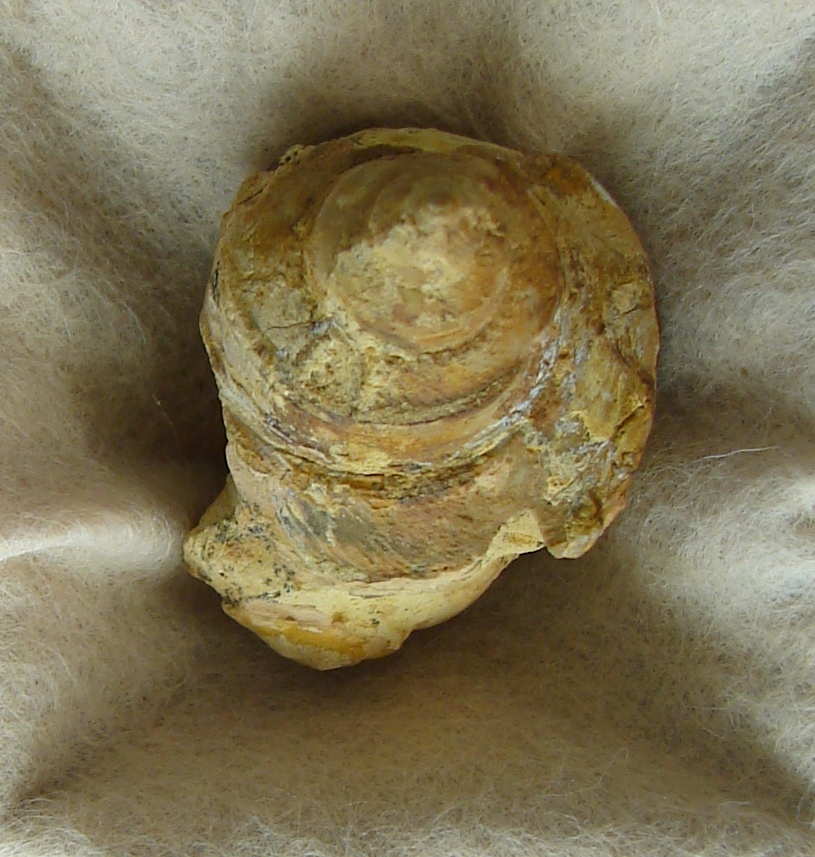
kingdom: Animalia
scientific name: Animalia
